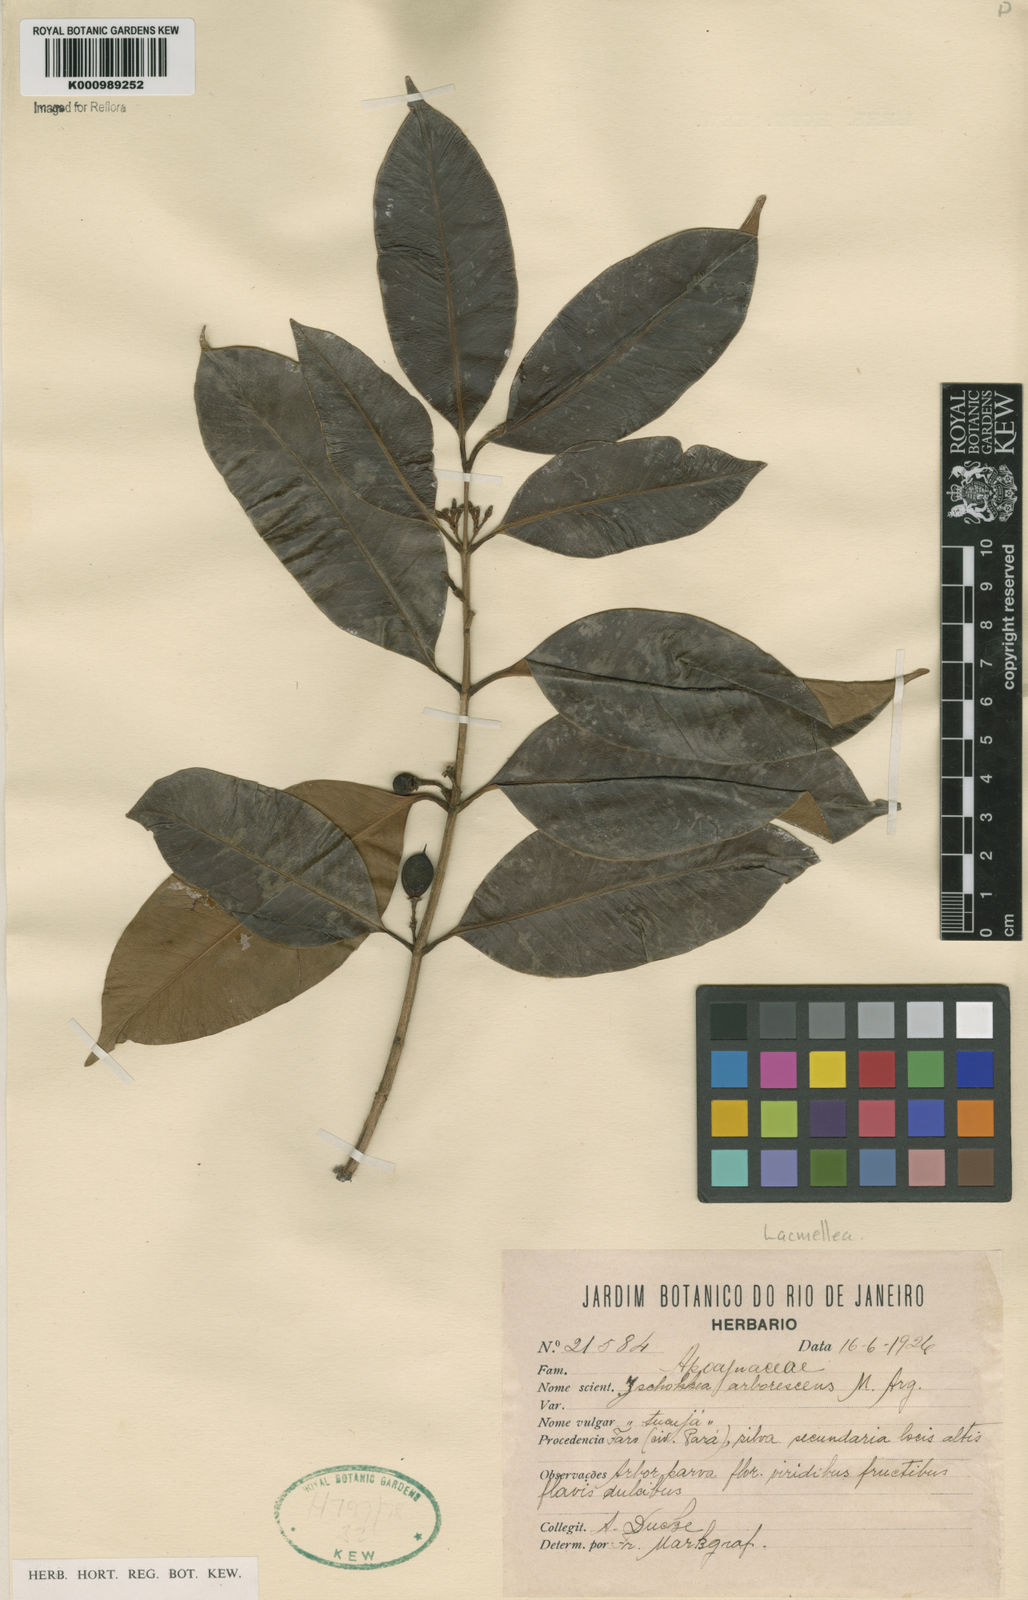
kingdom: Plantae
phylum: Tracheophyta
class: Magnoliopsida
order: Gentianales
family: Apocynaceae
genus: Lacmellea
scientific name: Lacmellea
